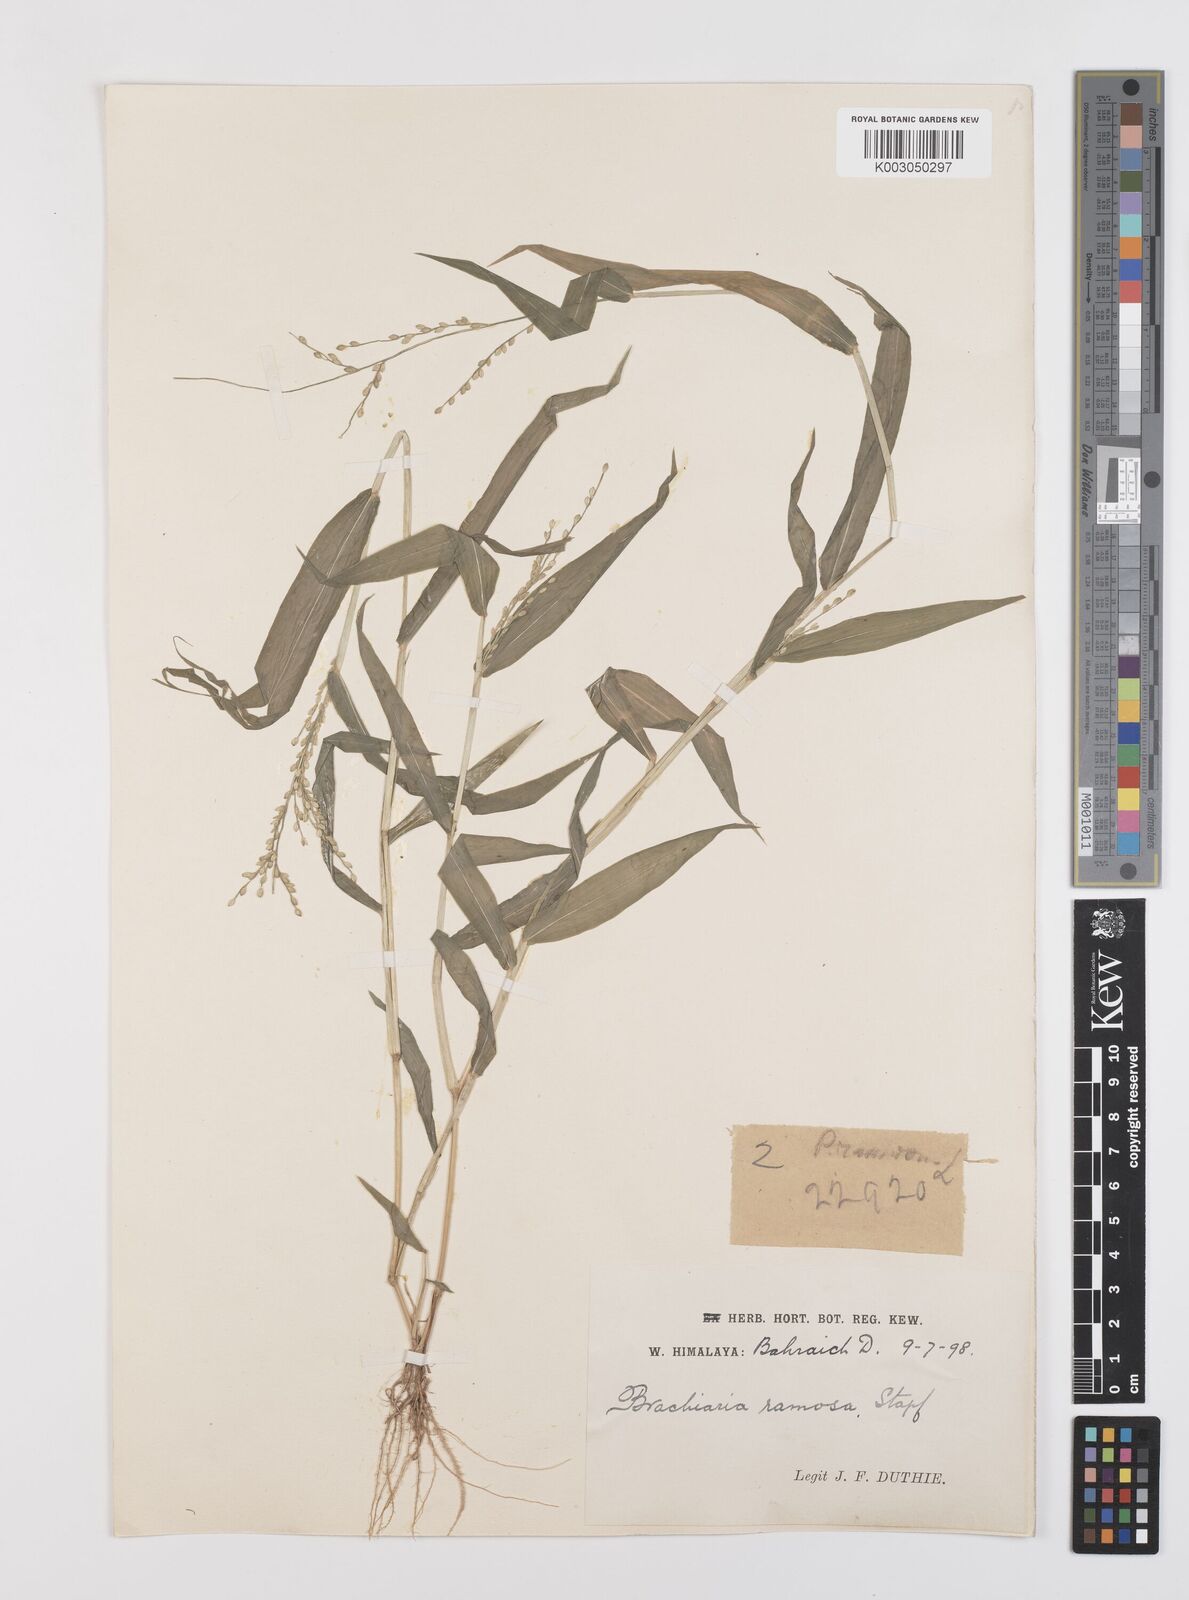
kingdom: Plantae
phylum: Tracheophyta
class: Liliopsida
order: Poales
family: Poaceae
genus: Urochloa
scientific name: Urochloa ramosa
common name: Browntop millet
